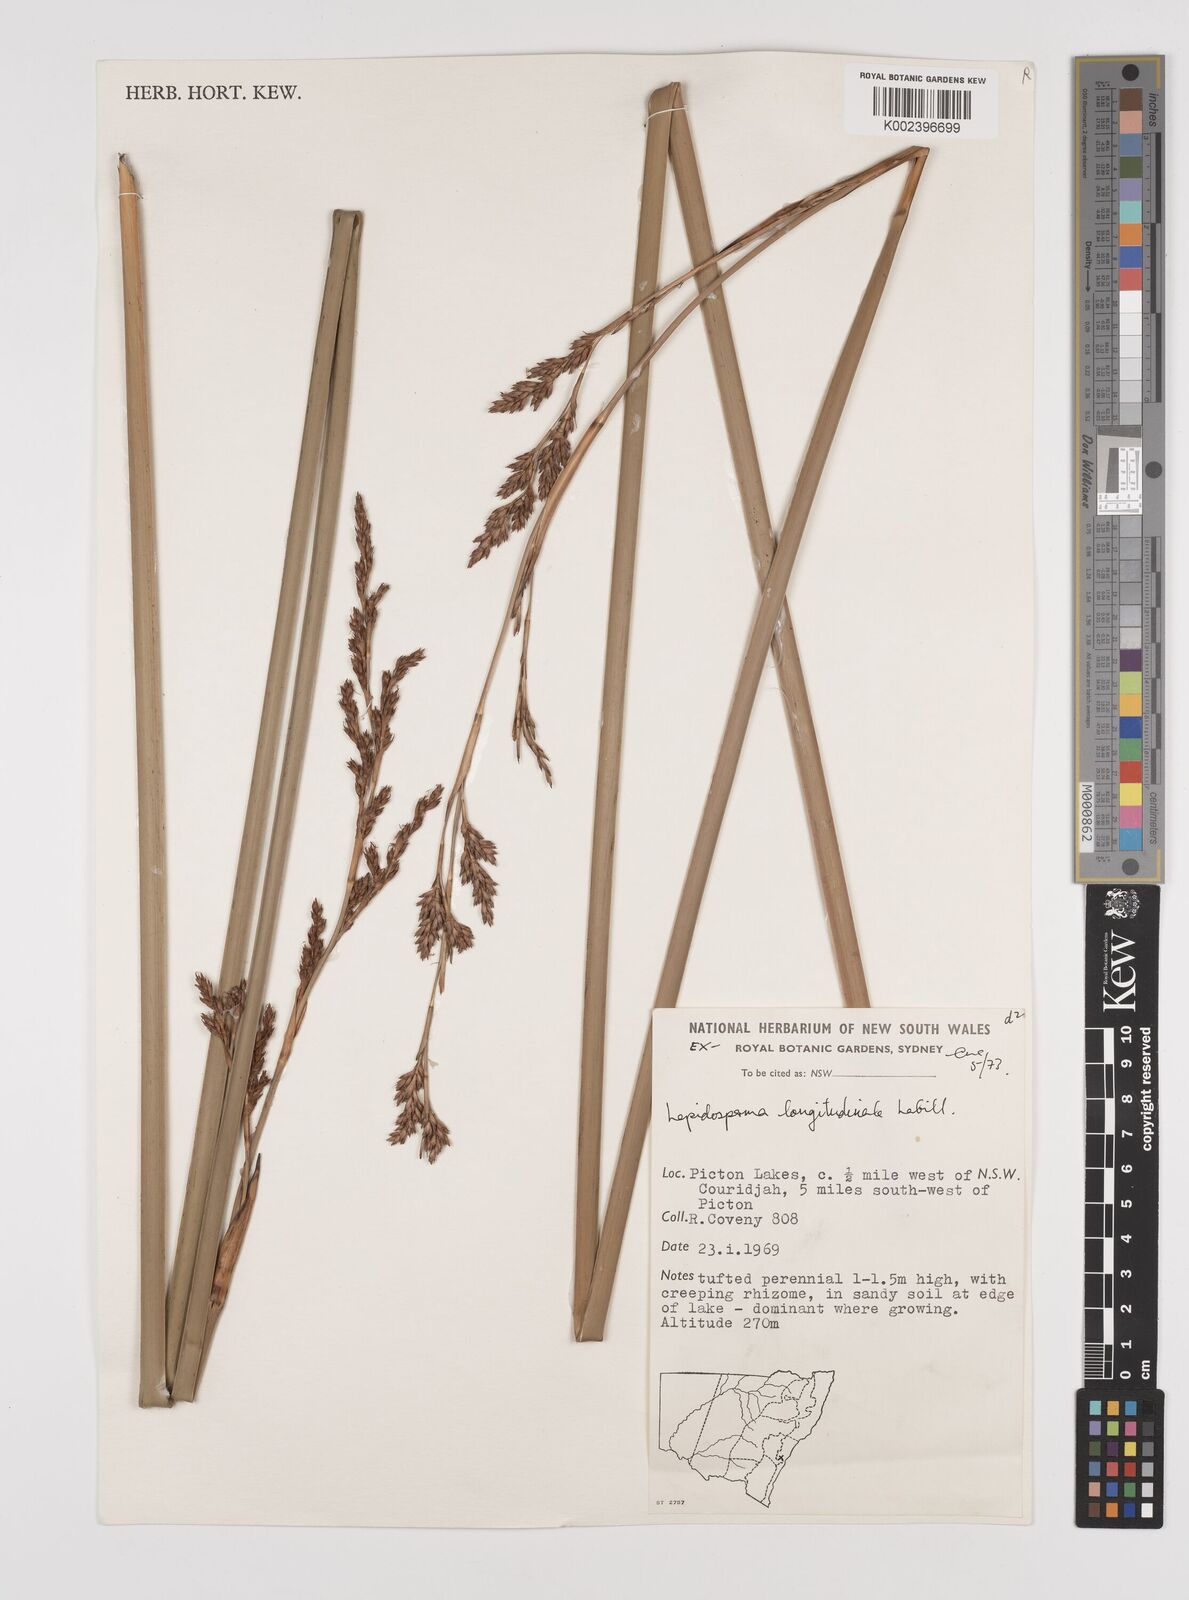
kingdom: Plantae
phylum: Tracheophyta
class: Liliopsida
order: Poales
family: Cyperaceae
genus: Lepidosperma
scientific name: Lepidosperma longitudinale
